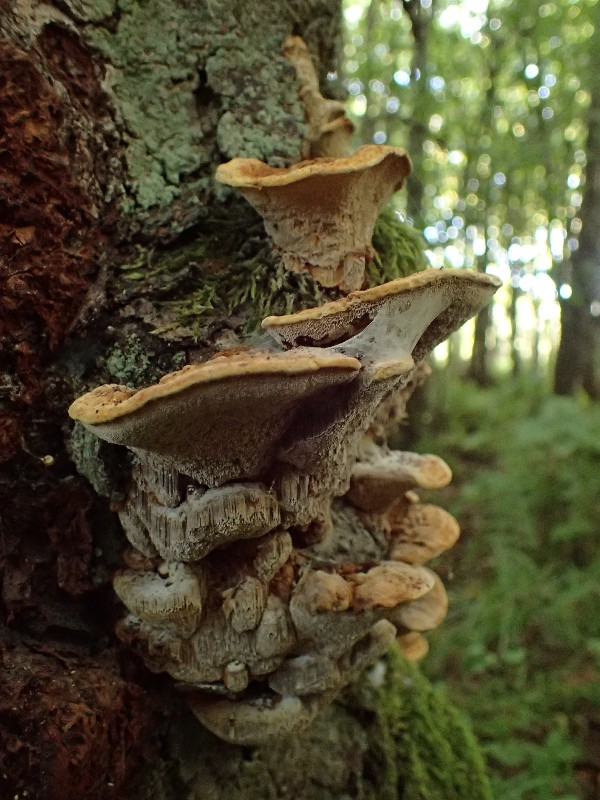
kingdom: Fungi
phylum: Basidiomycota
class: Agaricomycetes
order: Hymenochaetales
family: Hymenochaetaceae
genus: Xanthoporia
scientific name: Xanthoporia radiata
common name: elle-spejlporesvamp
